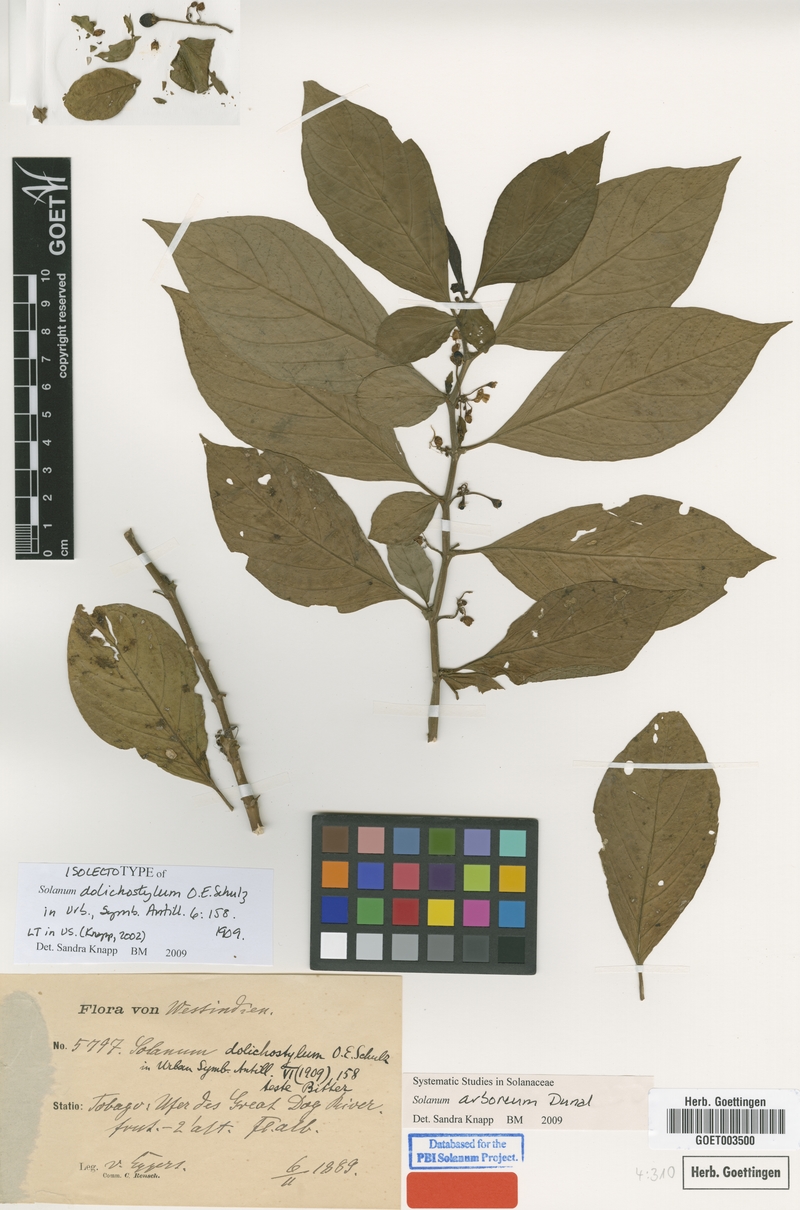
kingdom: Plantae
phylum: Tracheophyta
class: Magnoliopsida
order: Solanales
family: Solanaceae
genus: Solanum
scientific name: Solanum arboreum
